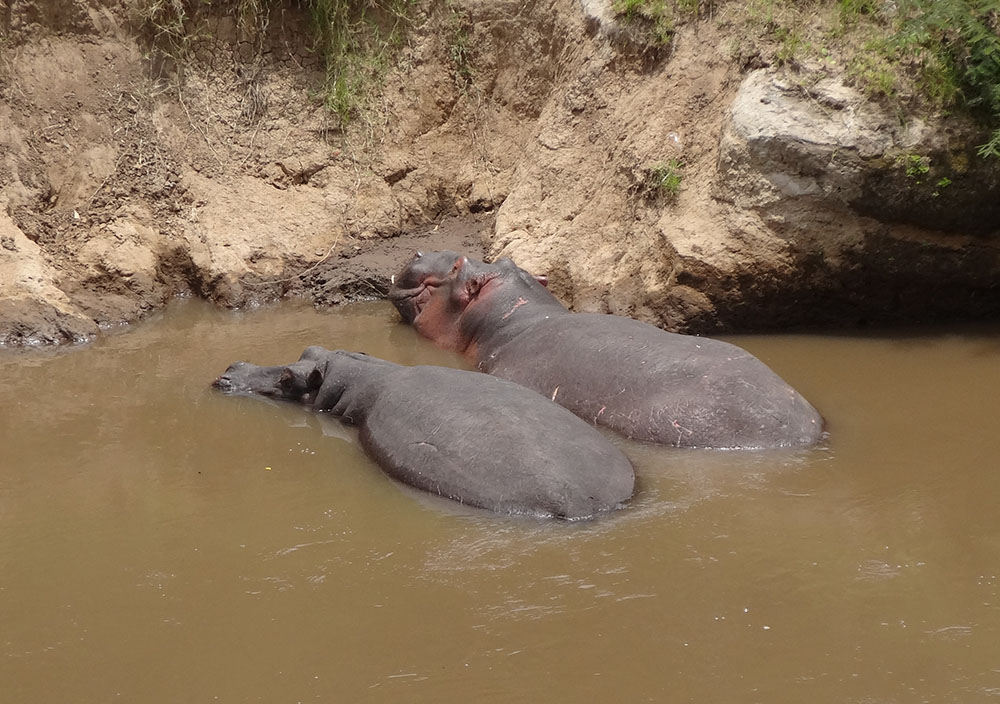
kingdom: Animalia
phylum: Chordata
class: Mammalia
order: Artiodactyla
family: Hippopotamidae
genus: Hippopotamus
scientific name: Hippopotamus amphibius
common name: Common hippopotamus
